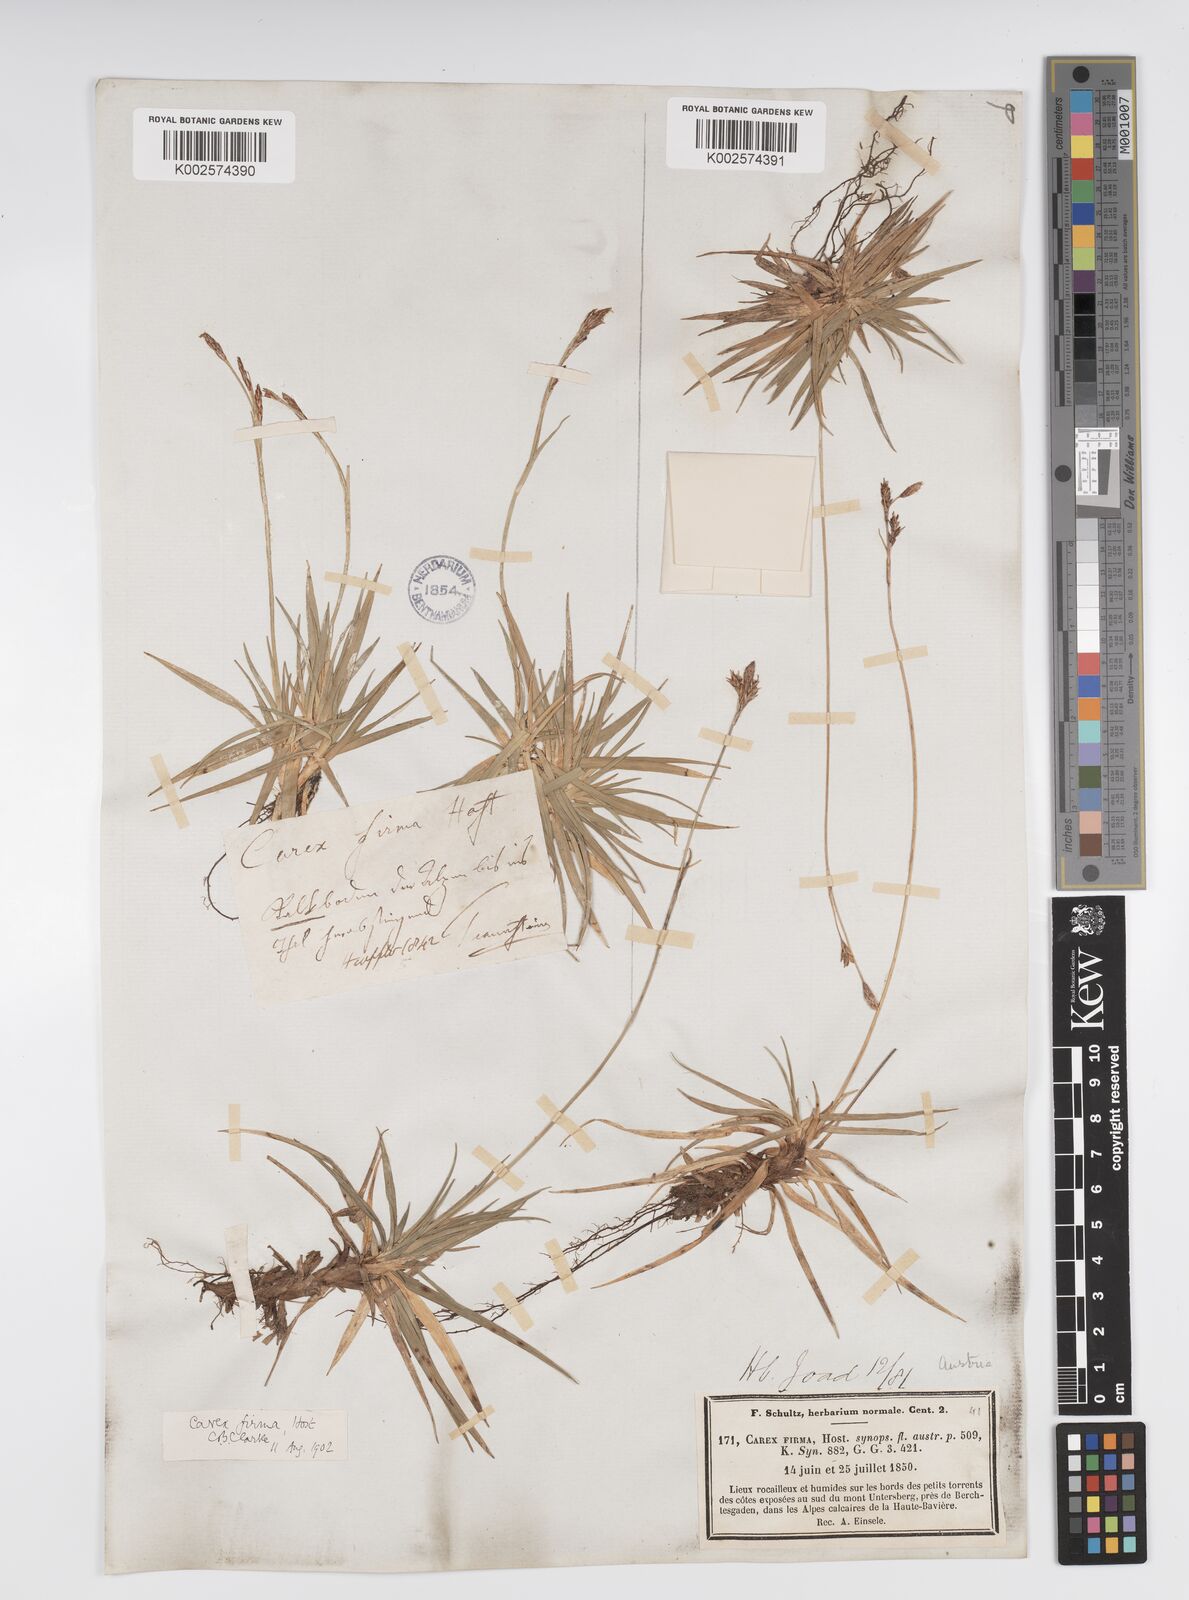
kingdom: Plantae
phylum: Tracheophyta
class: Liliopsida
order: Poales
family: Cyperaceae
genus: Carex
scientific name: Carex firma
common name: Dwarf pillow sedge
